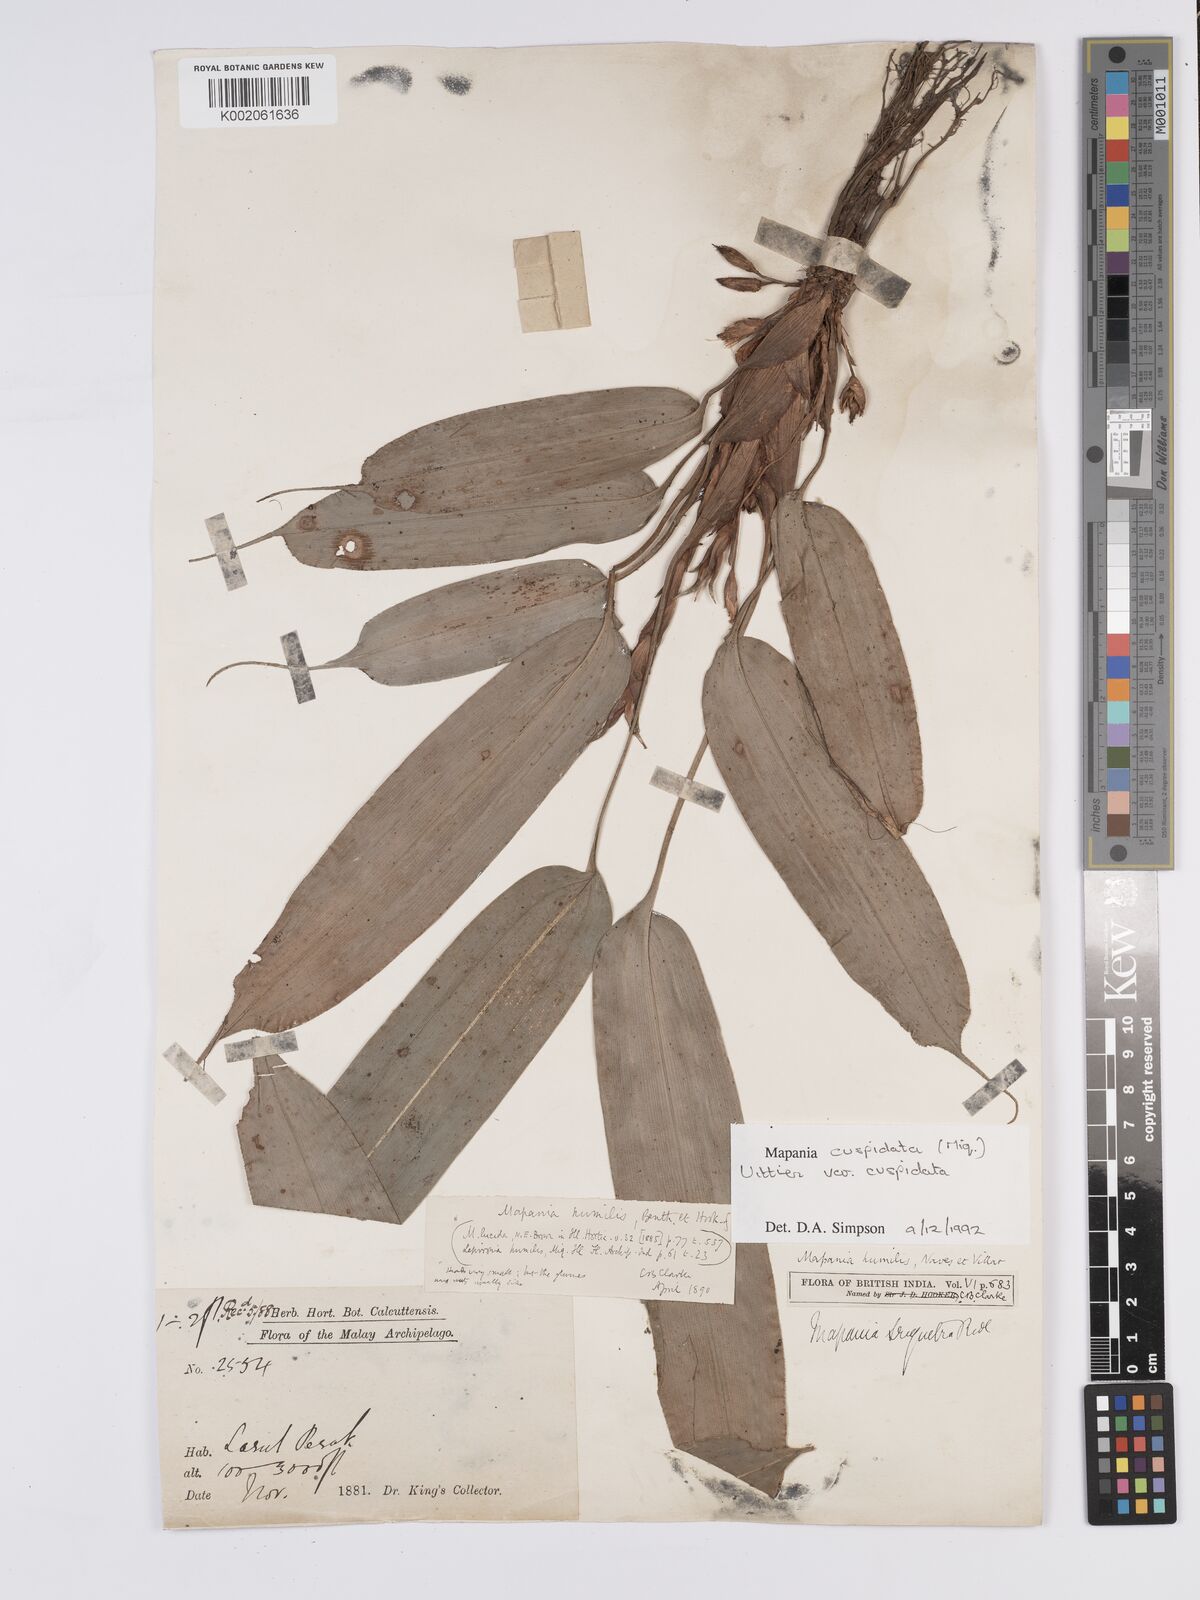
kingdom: Plantae
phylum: Tracheophyta
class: Liliopsida
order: Poales
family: Cyperaceae
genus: Mapania
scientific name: Mapania cuspidata
